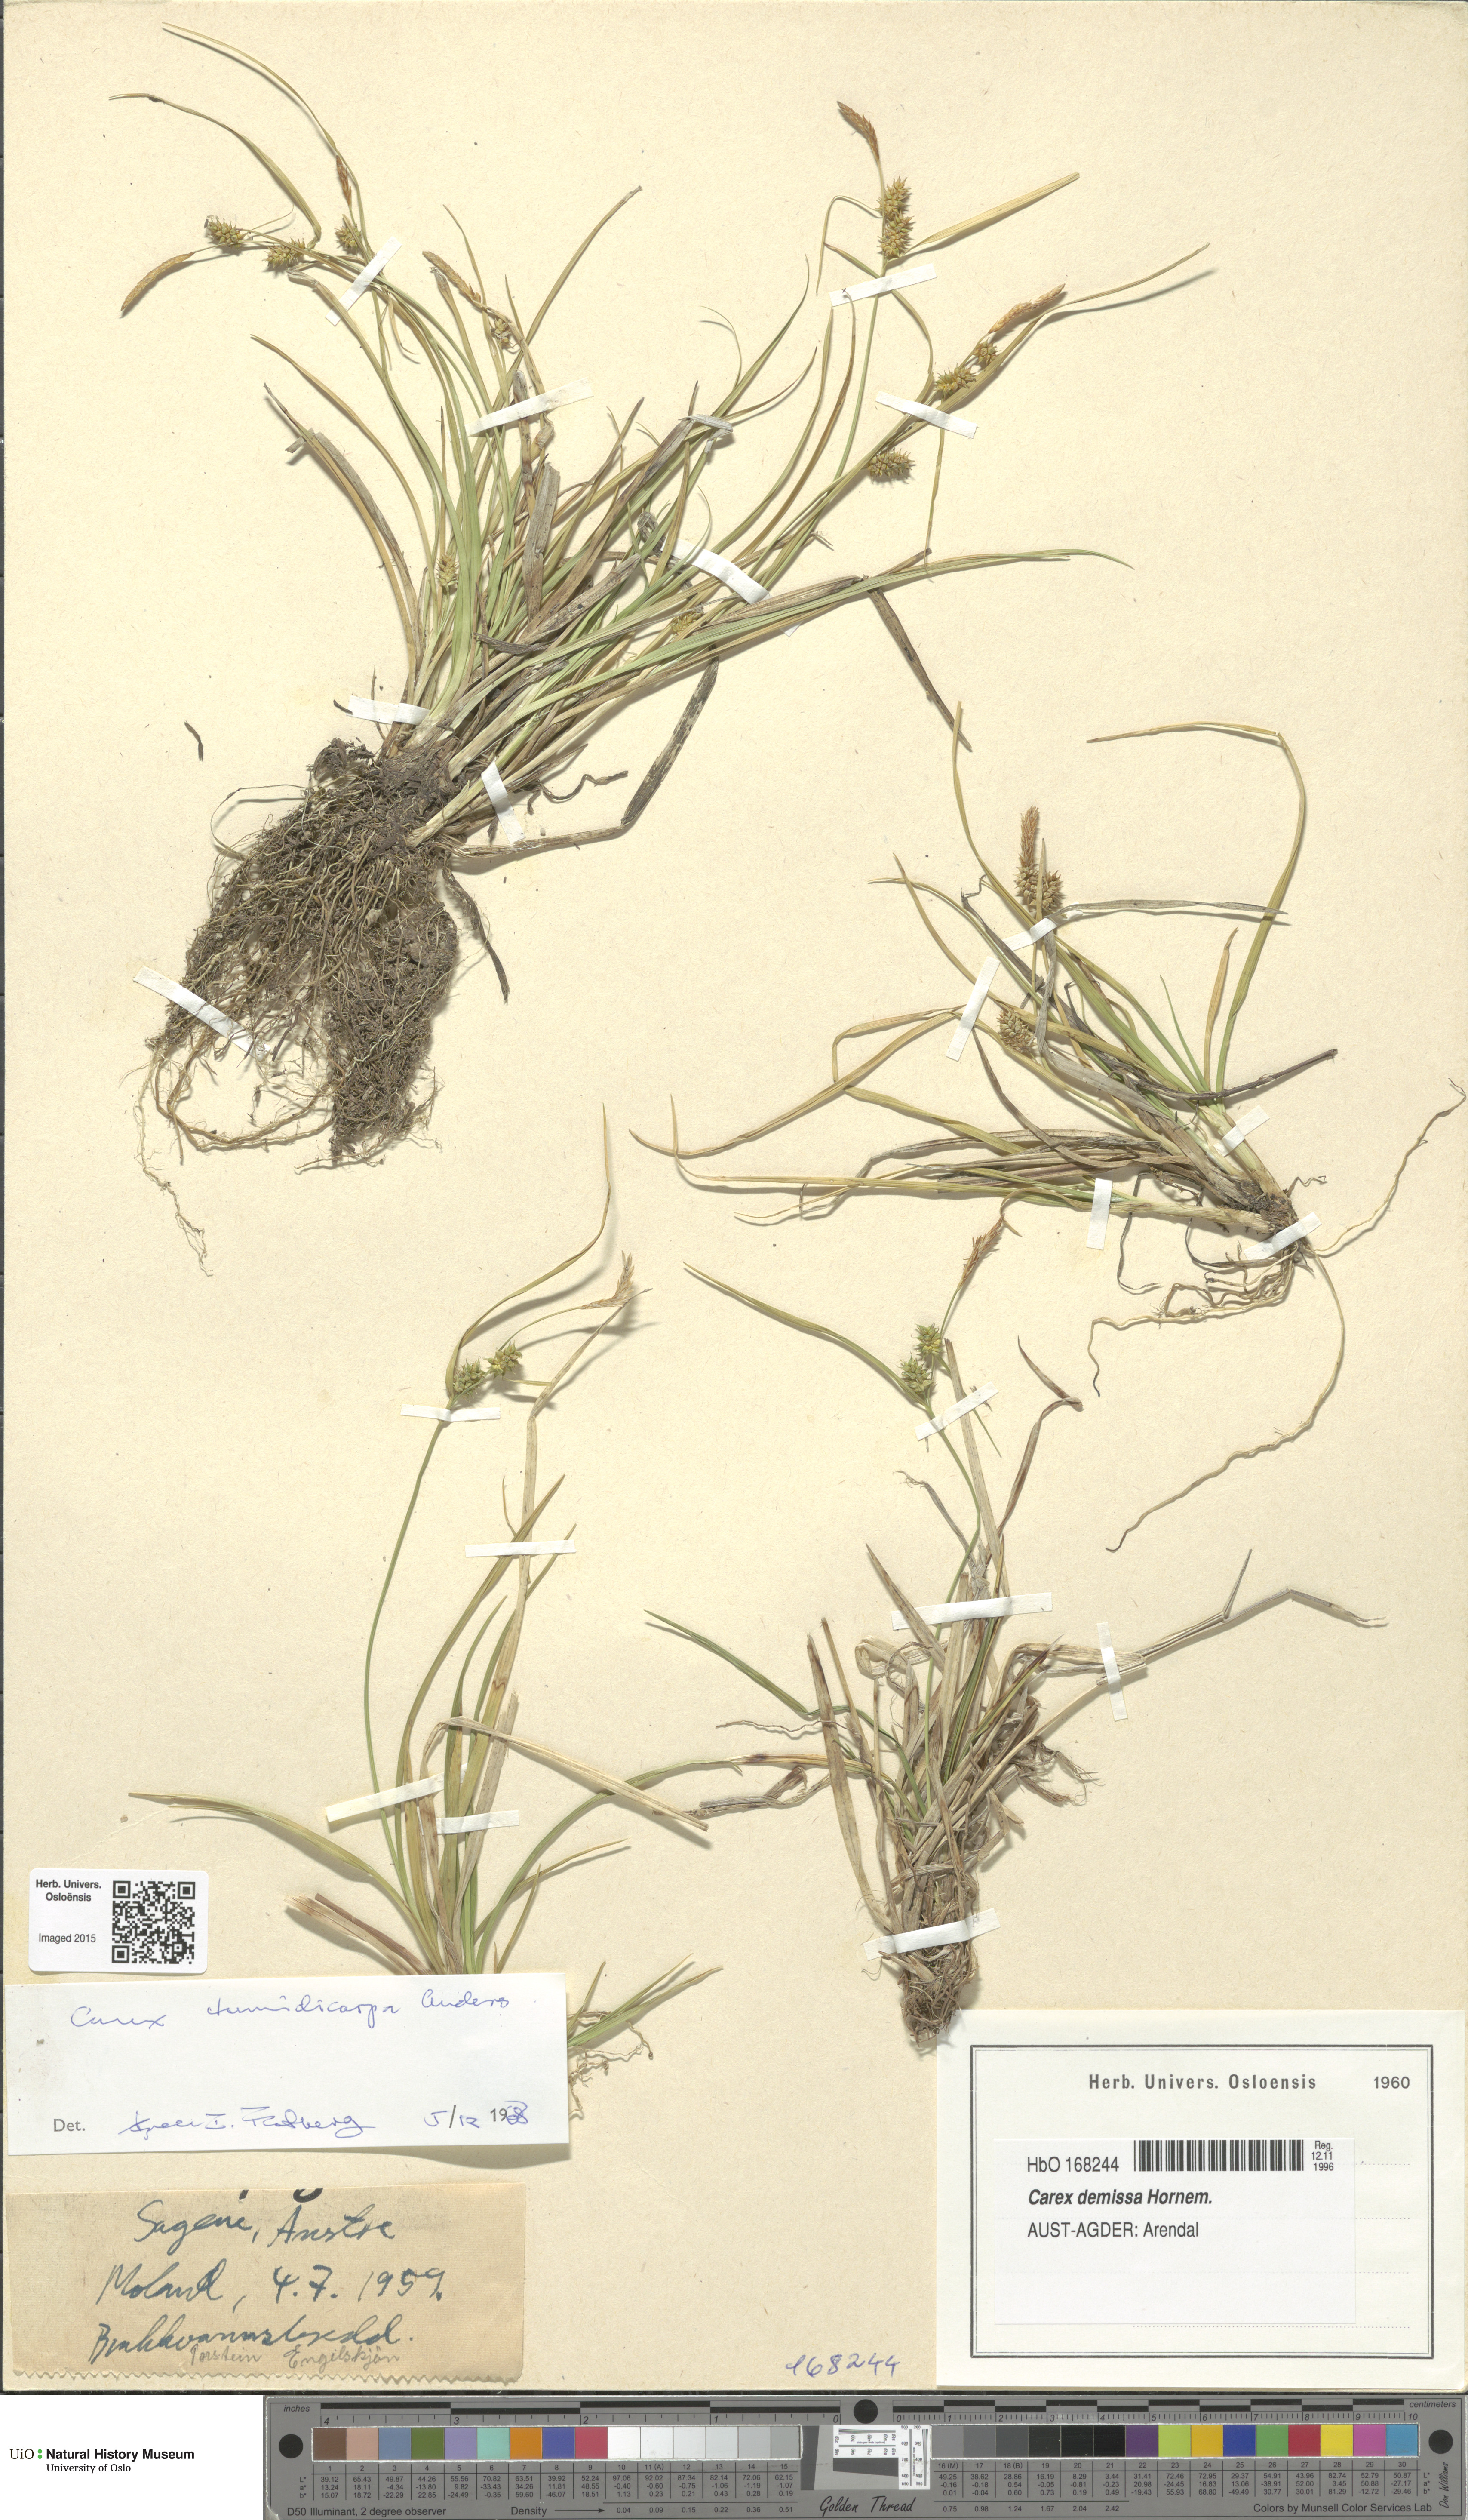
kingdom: Plantae
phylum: Tracheophyta
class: Liliopsida
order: Poales
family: Cyperaceae
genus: Carex
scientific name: Carex demissa
